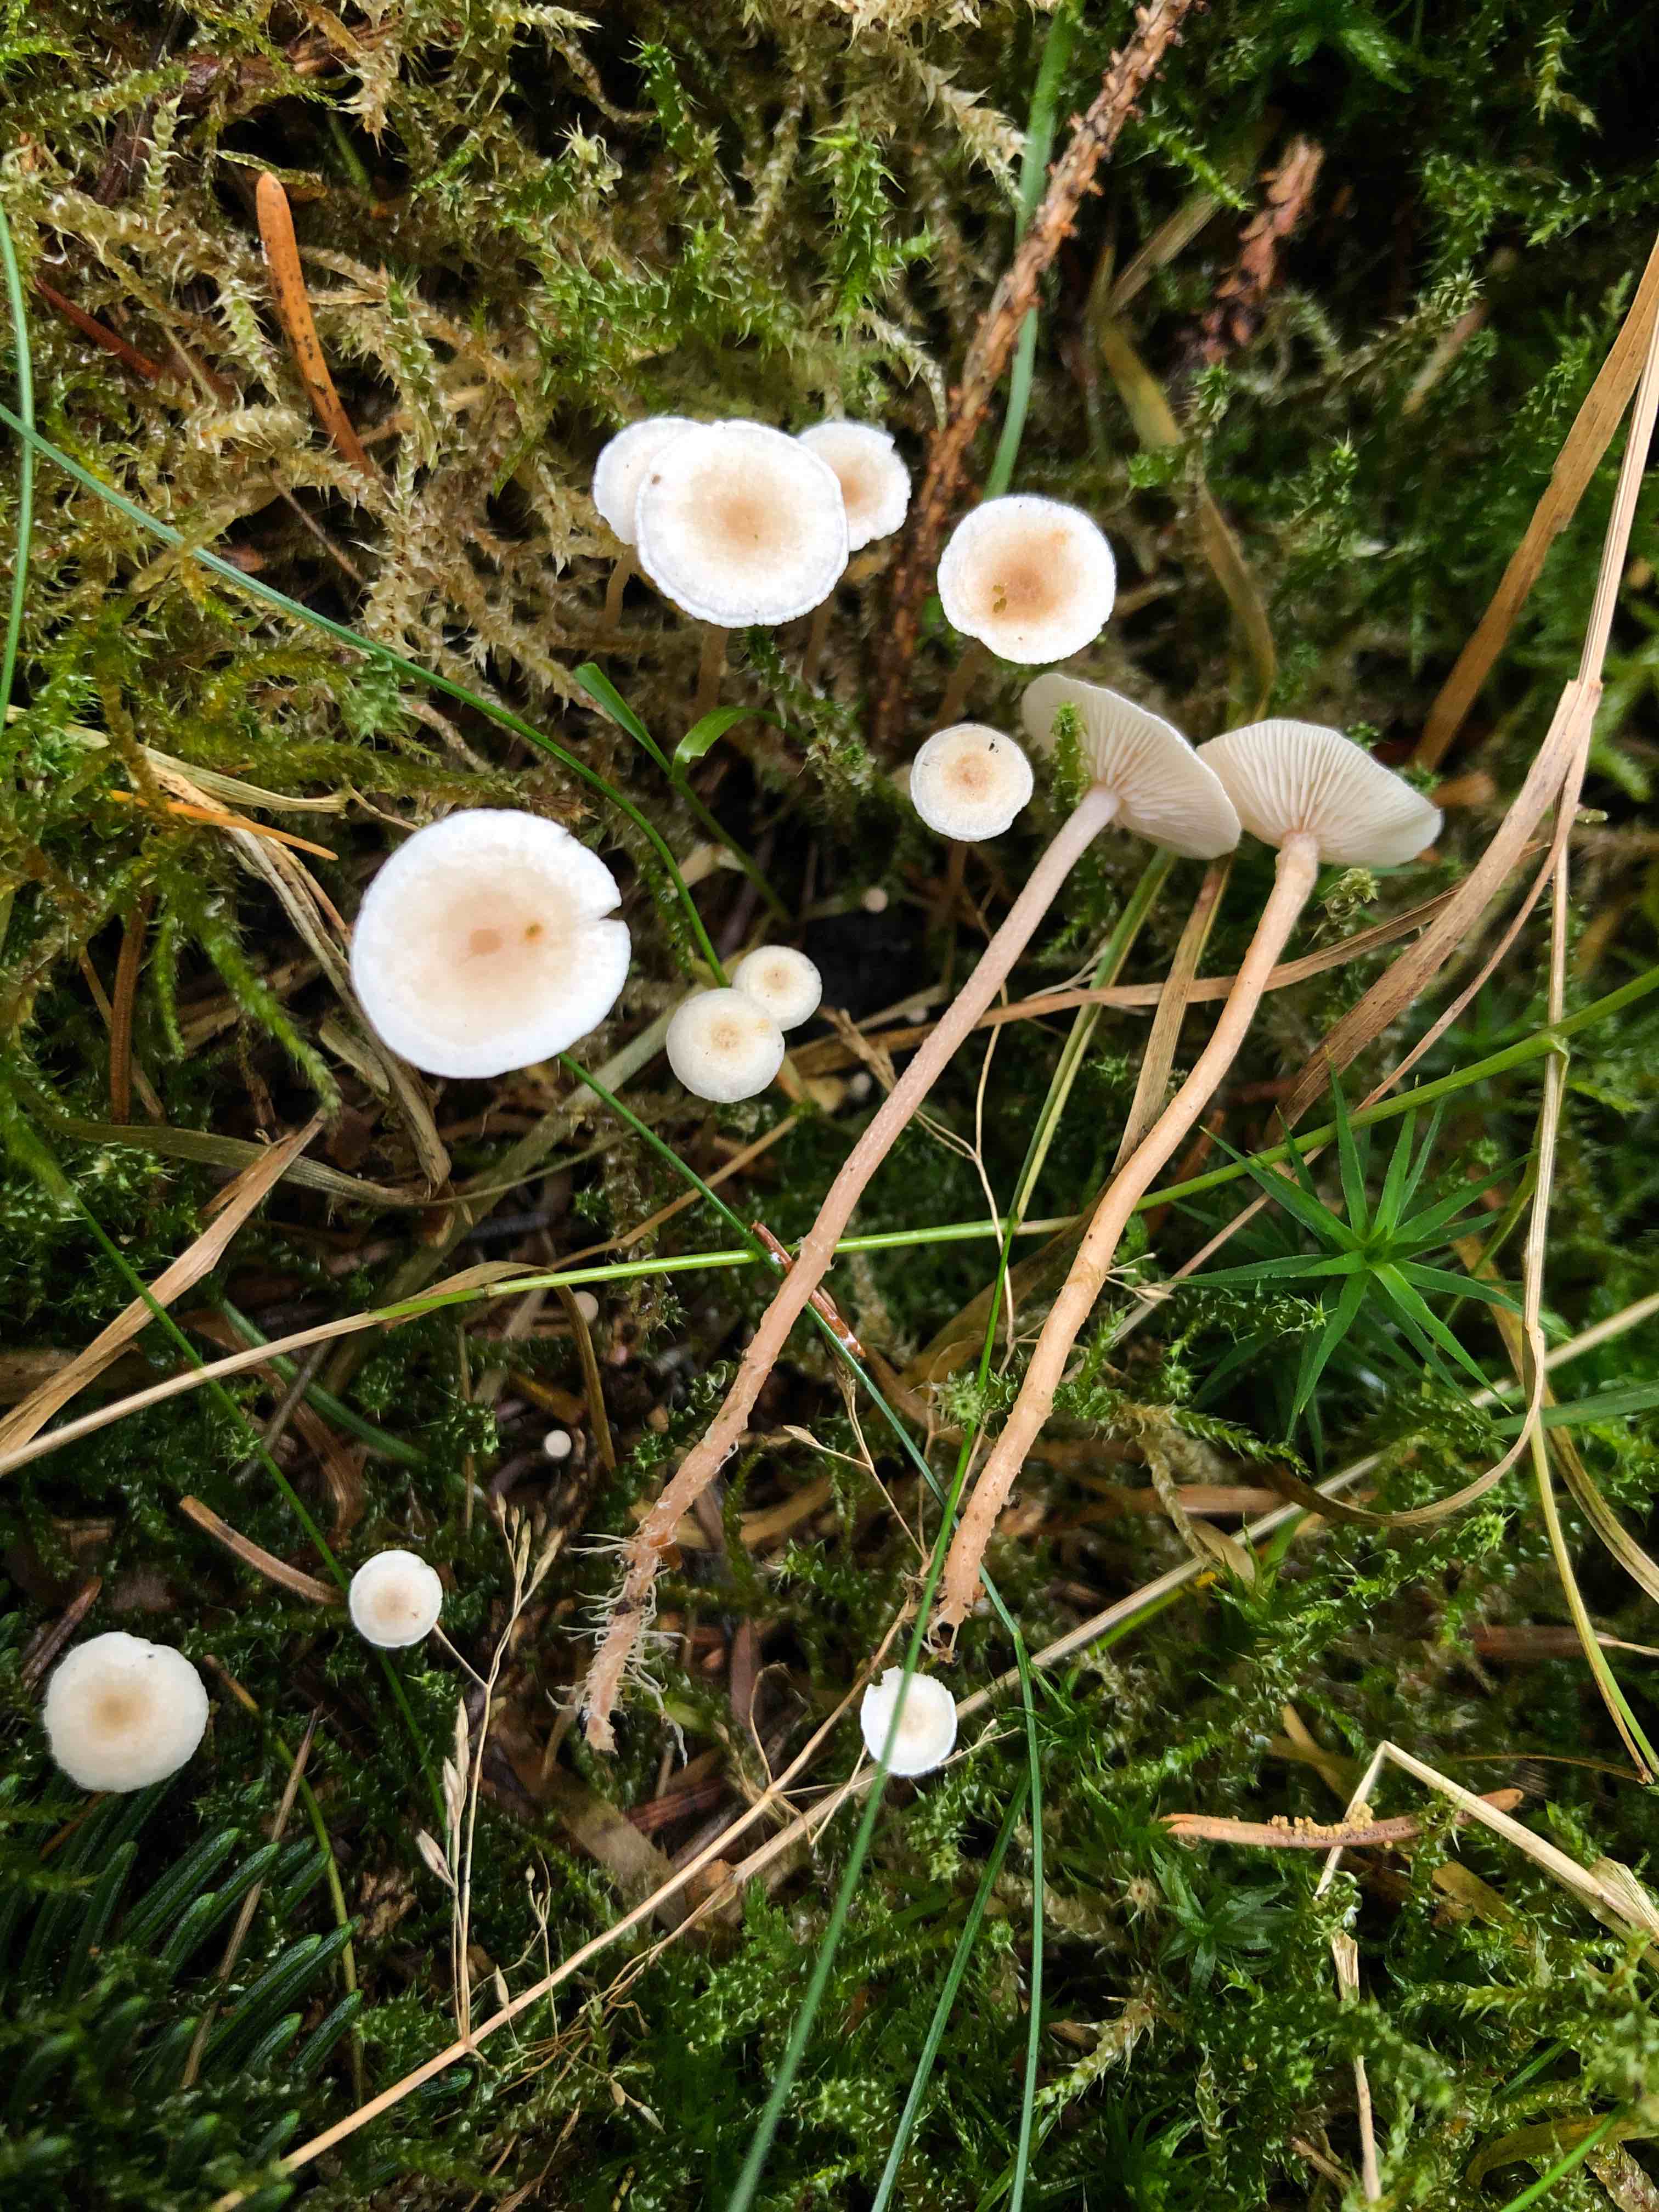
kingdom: Fungi
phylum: Basidiomycota
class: Agaricomycetes
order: Agaricales
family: Tricholomataceae
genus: Collybia
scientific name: Collybia cookei
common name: gulknoldet lighat
